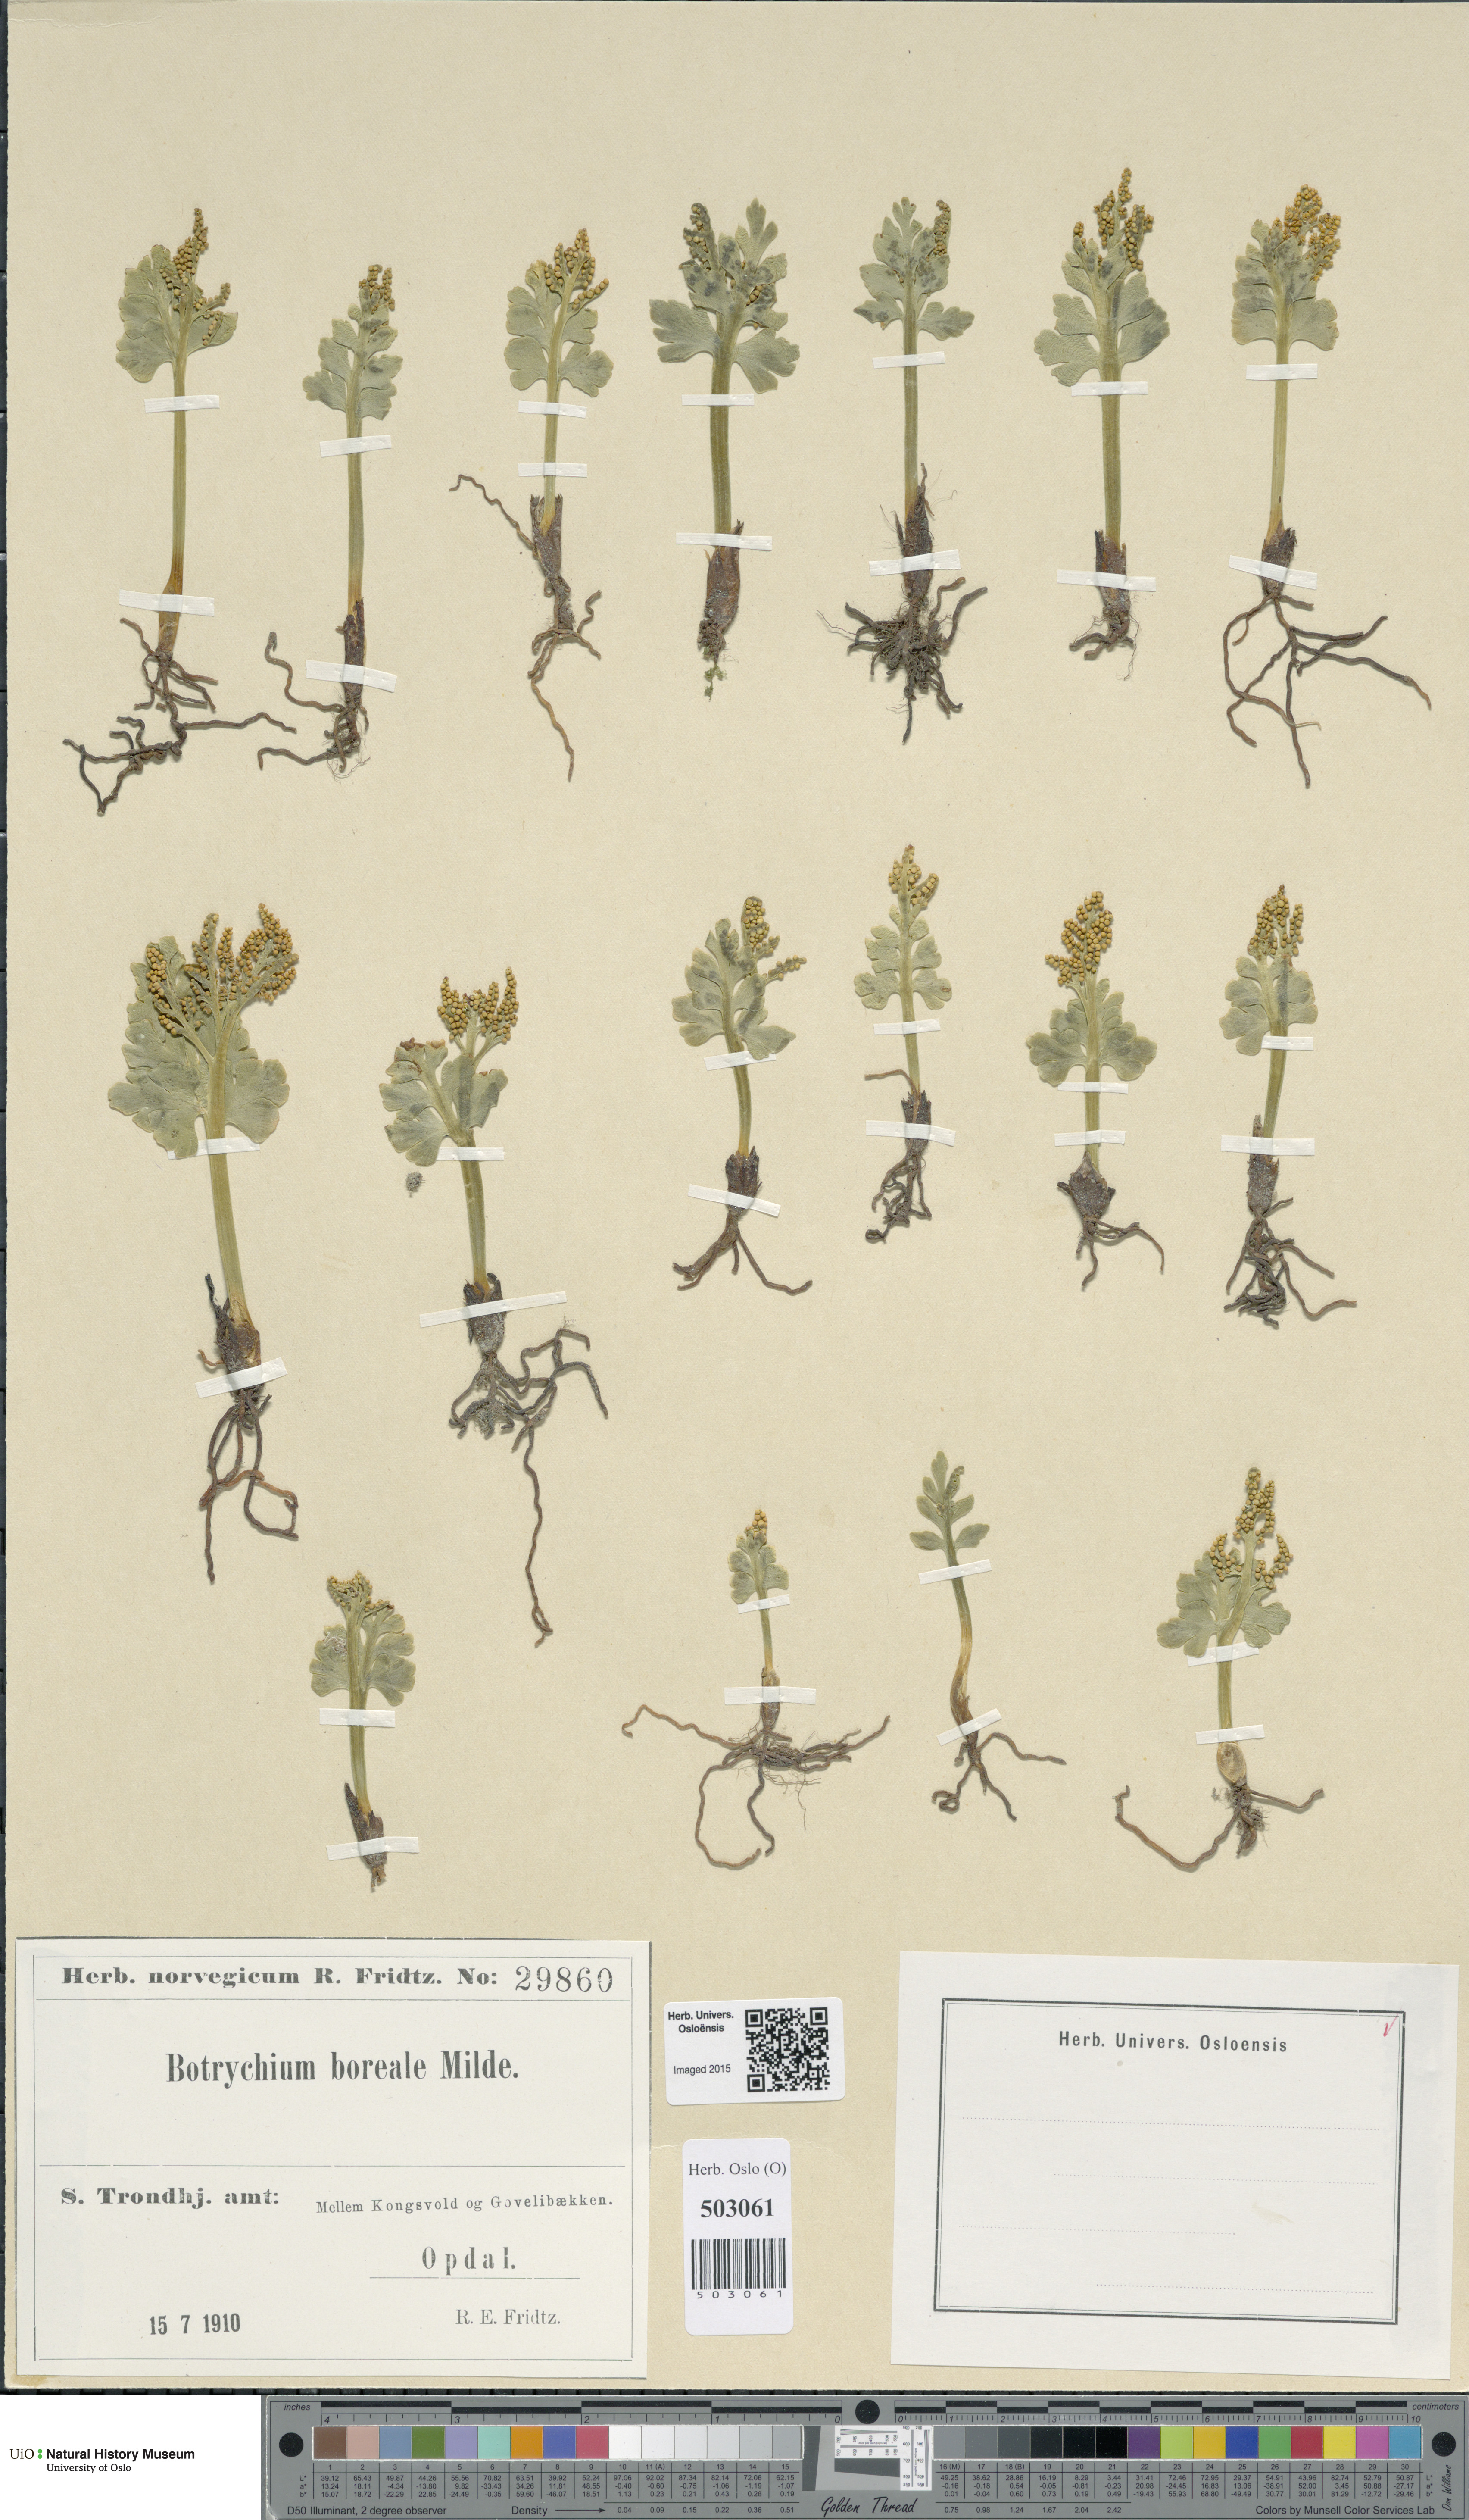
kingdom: Plantae
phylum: Tracheophyta
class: Polypodiopsida
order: Ophioglossales
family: Ophioglossaceae
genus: Botrychium
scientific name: Botrychium boreale
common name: Boreal moonwort
